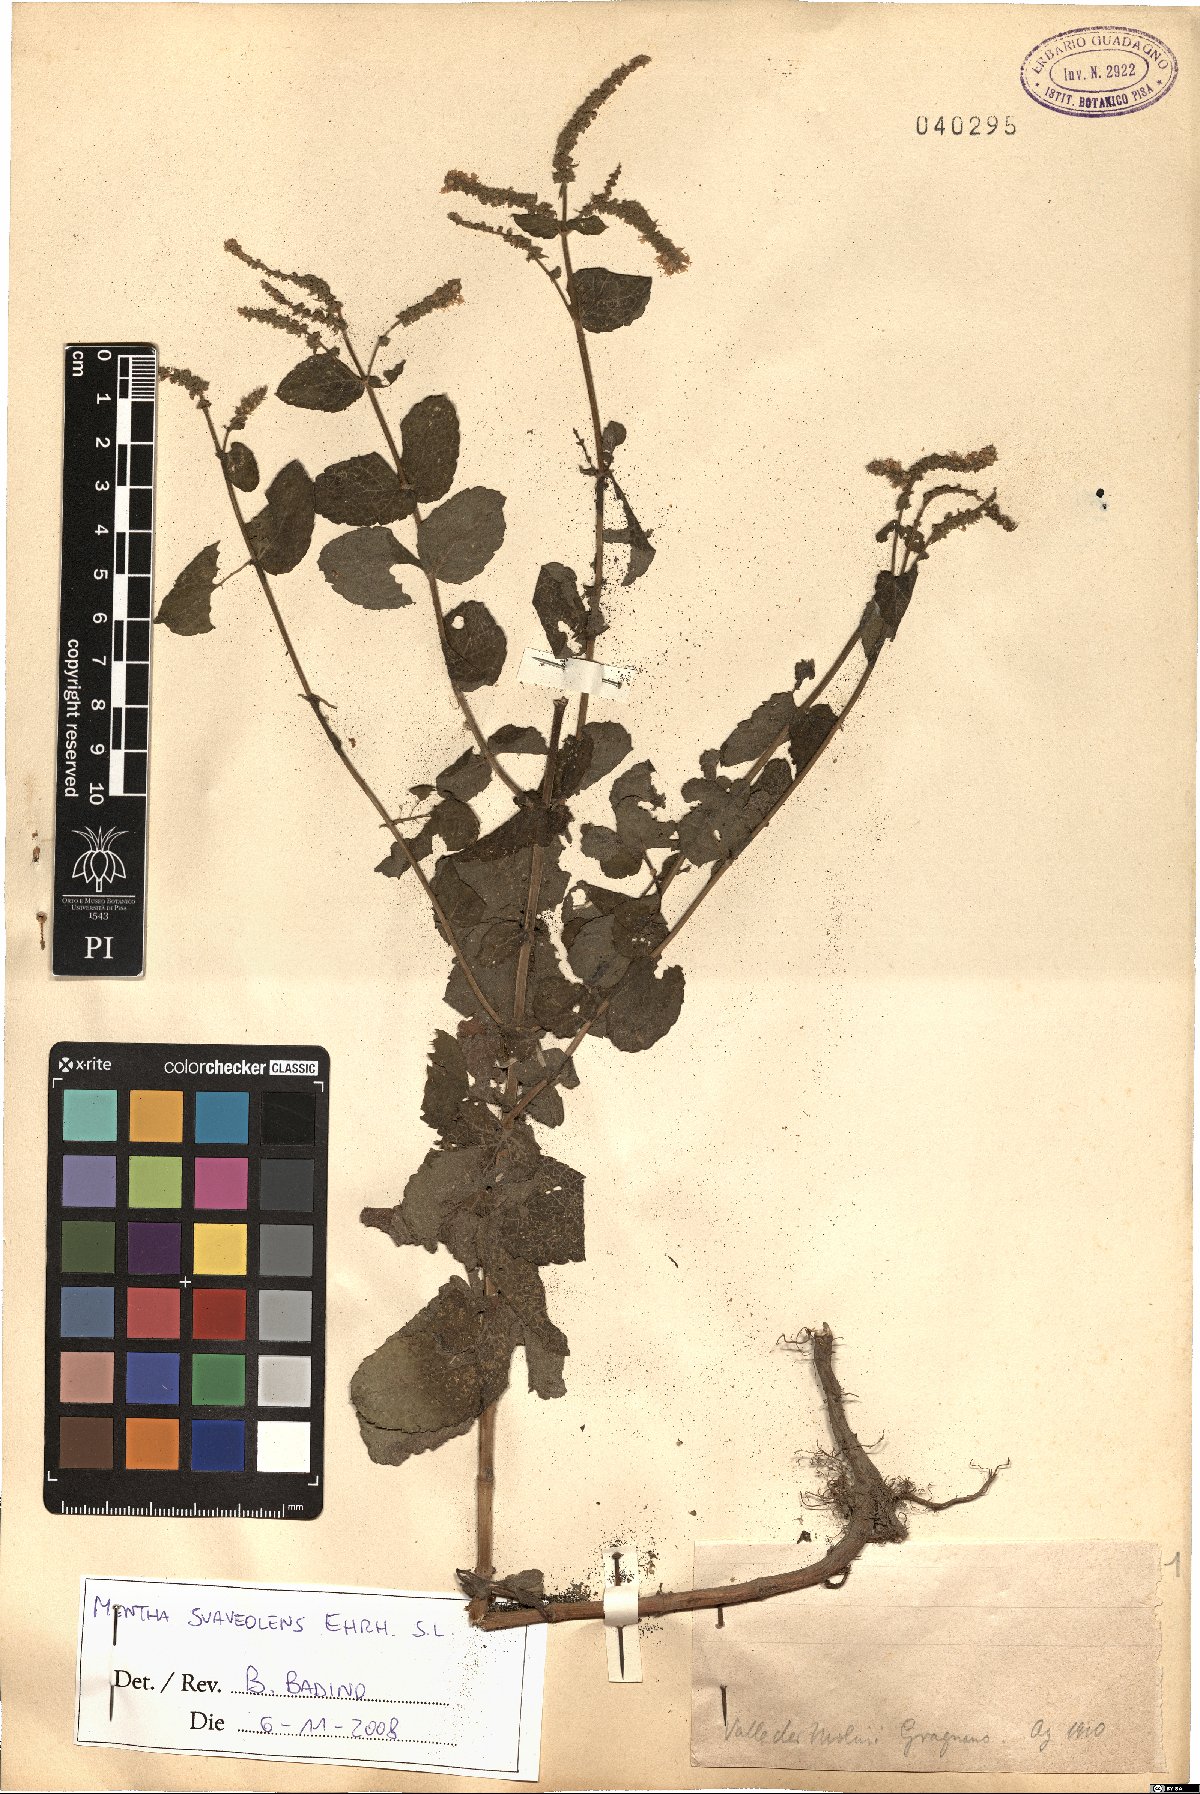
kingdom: Plantae
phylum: Tracheophyta
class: Magnoliopsida
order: Lamiales
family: Lamiaceae
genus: Mentha
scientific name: Mentha suaveolens
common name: Apple mint
